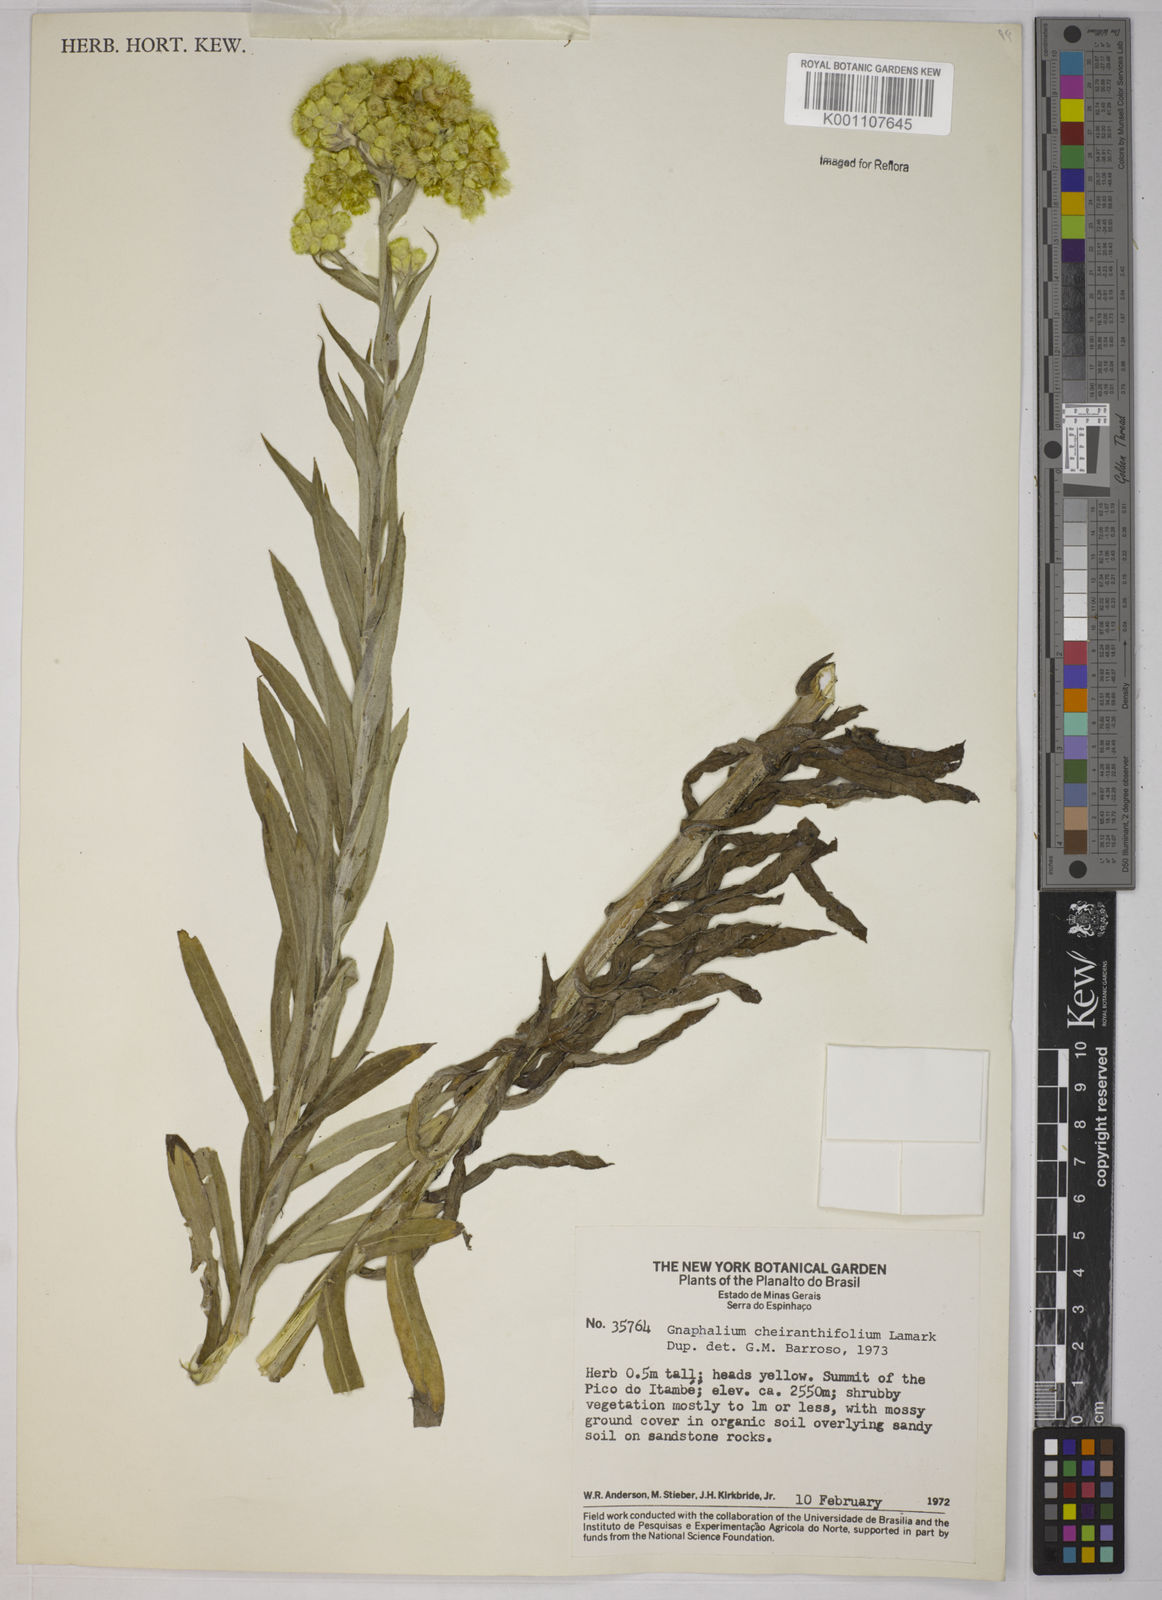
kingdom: Plantae
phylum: Tracheophyta
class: Magnoliopsida
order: Asterales
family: Asteraceae
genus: Pseudognaphalium
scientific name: Pseudognaphalium cheiranthifolium
